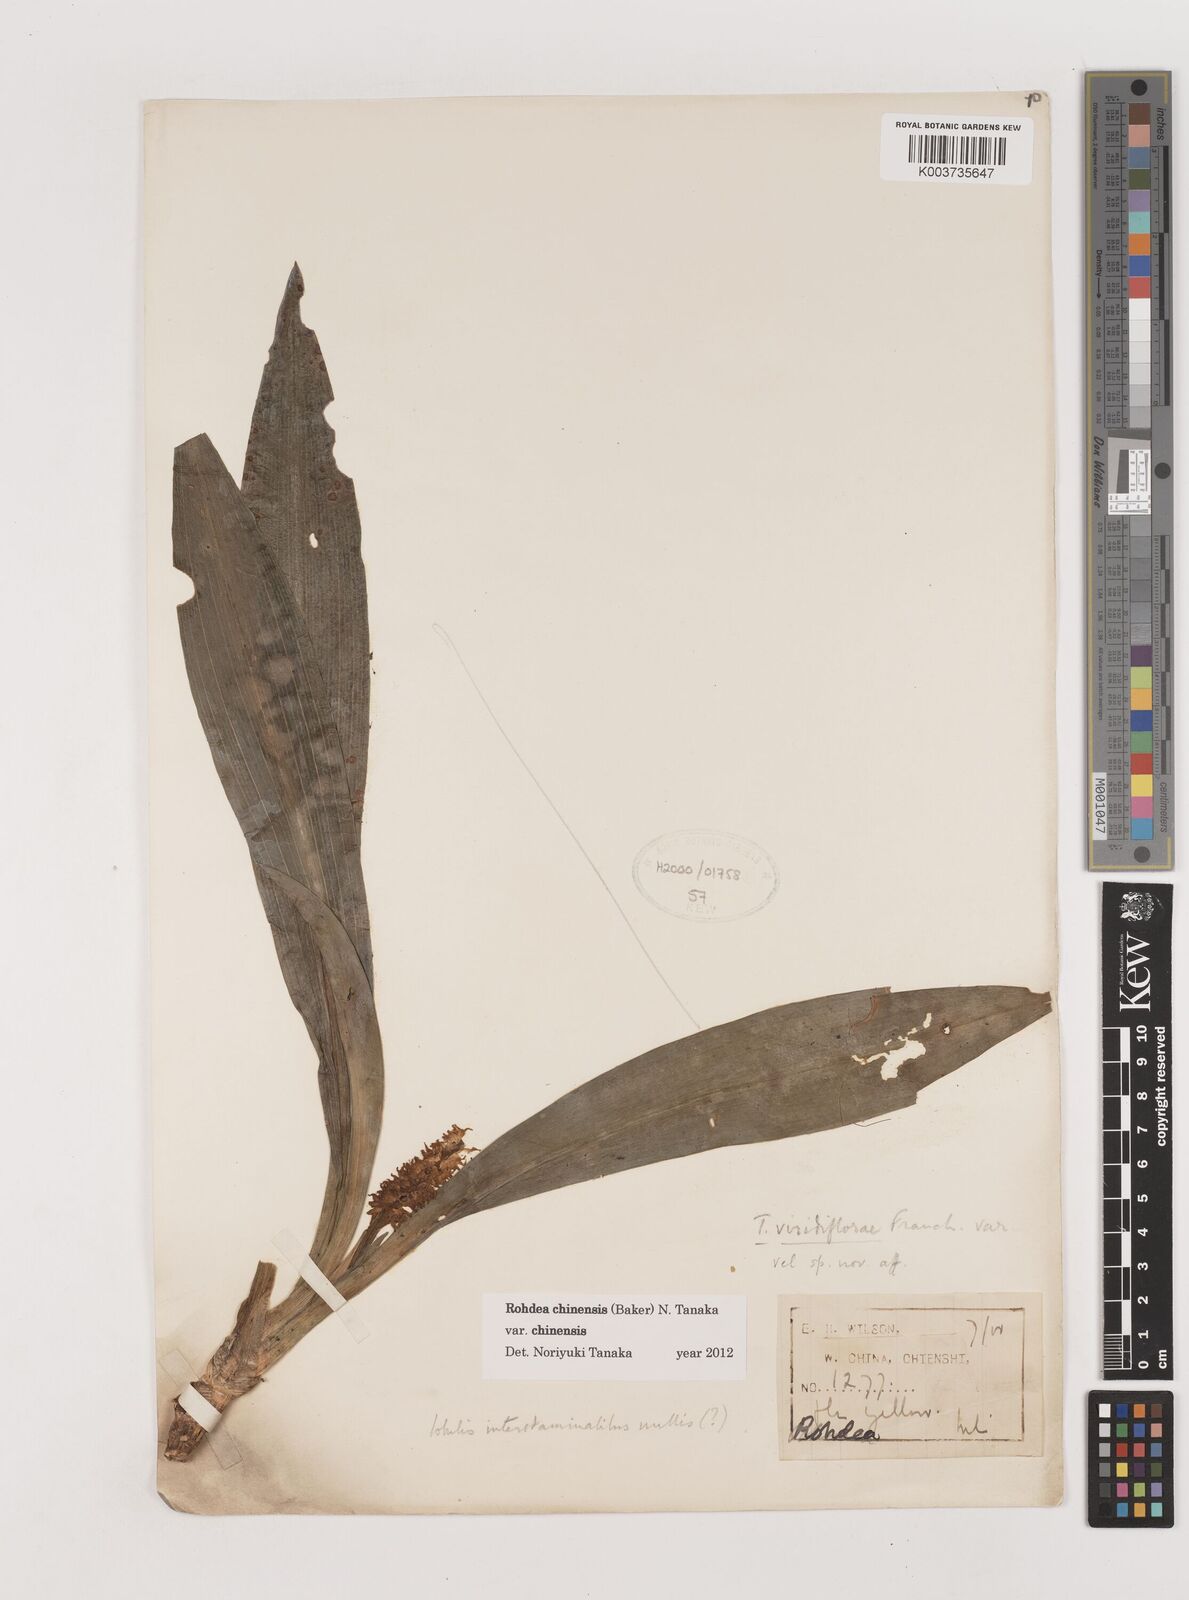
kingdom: Plantae
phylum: Tracheophyta
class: Liliopsida
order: Asparagales
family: Asparagaceae
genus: Rohdea
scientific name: Rohdea fargesii
